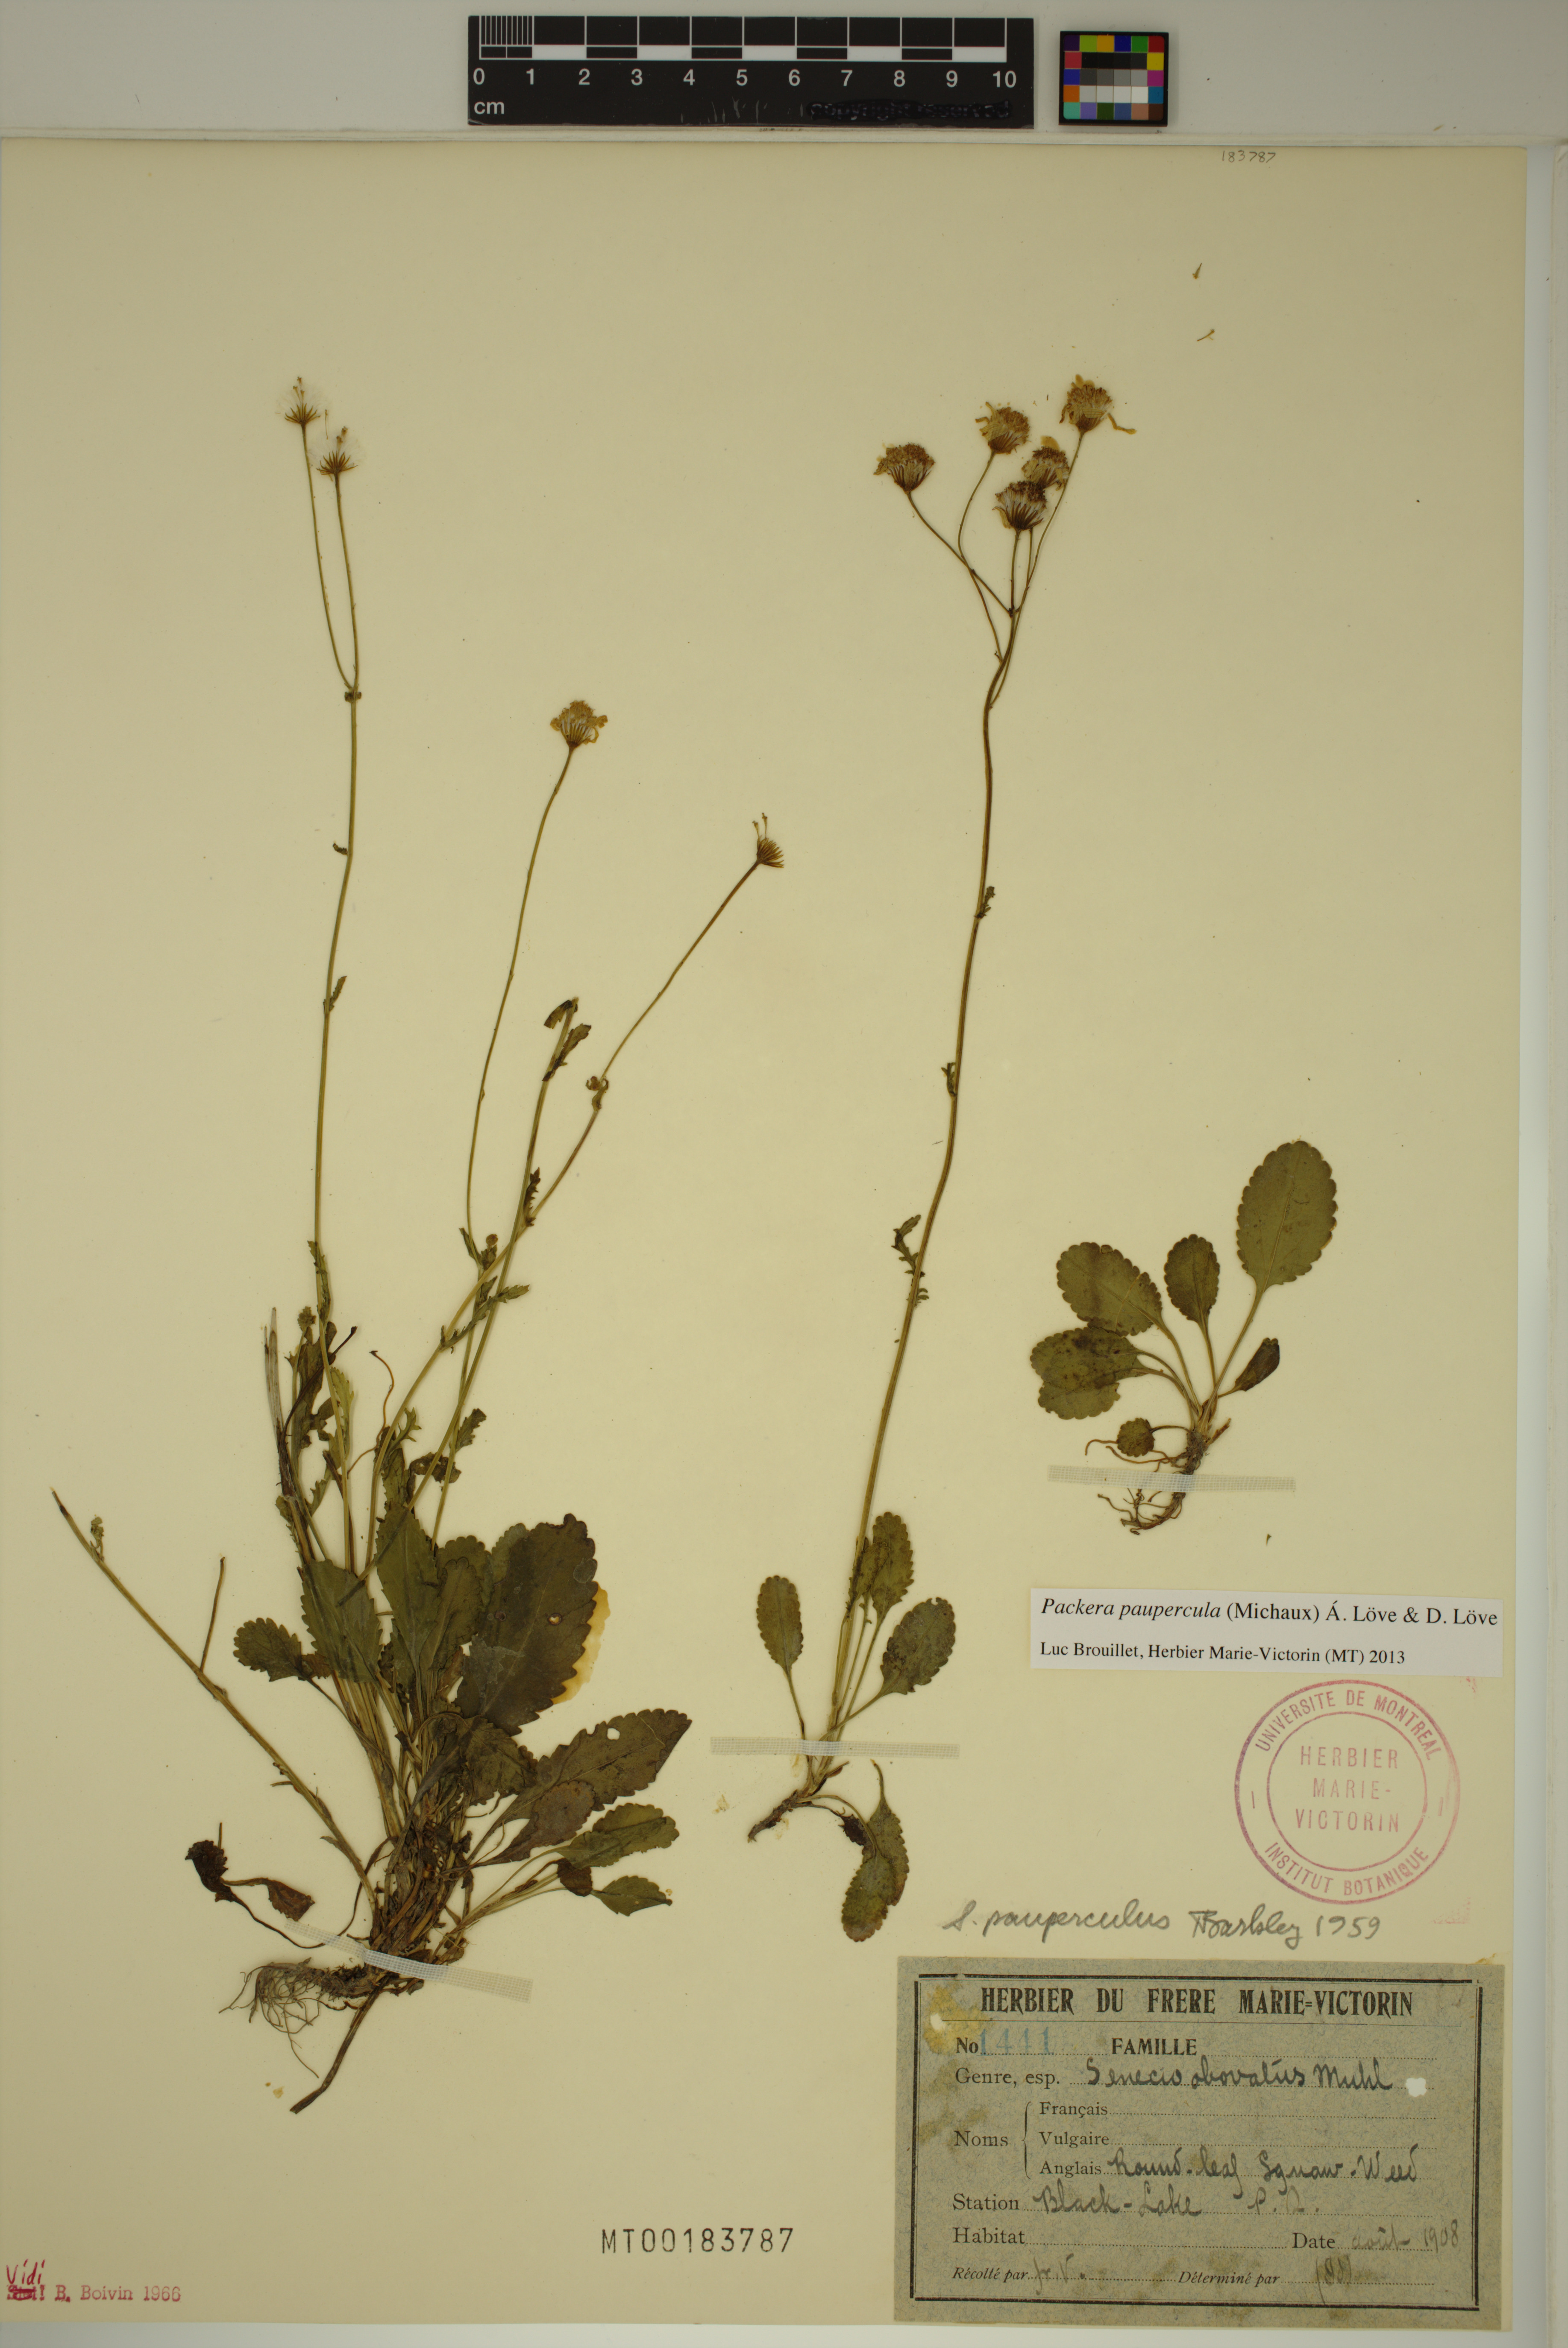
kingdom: Plantae
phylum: Tracheophyta
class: Magnoliopsida
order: Asterales
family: Asteraceae
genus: Packera
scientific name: Packera paupercula
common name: Balsam groundsel
